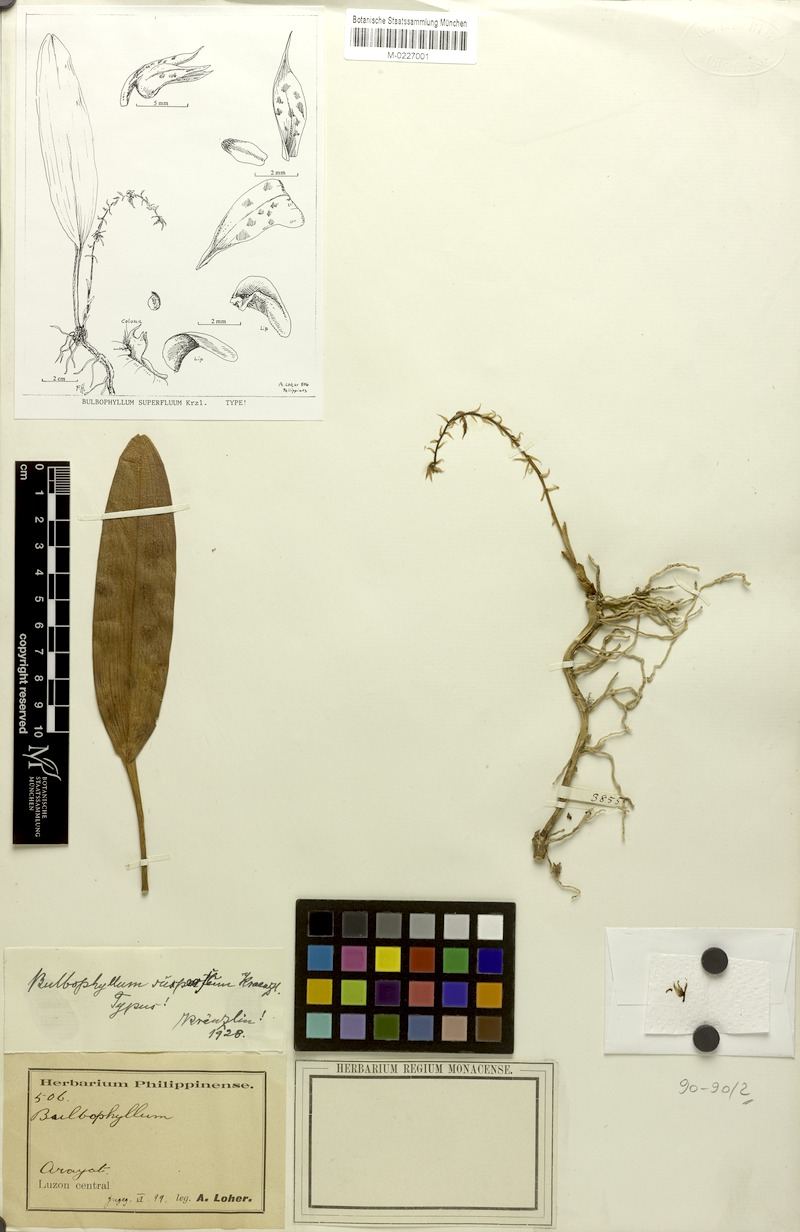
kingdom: Plantae
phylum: Tracheophyta
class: Liliopsida
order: Asparagales
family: Orchidaceae
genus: Bulbophyllum
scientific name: Bulbophyllum superfluum
